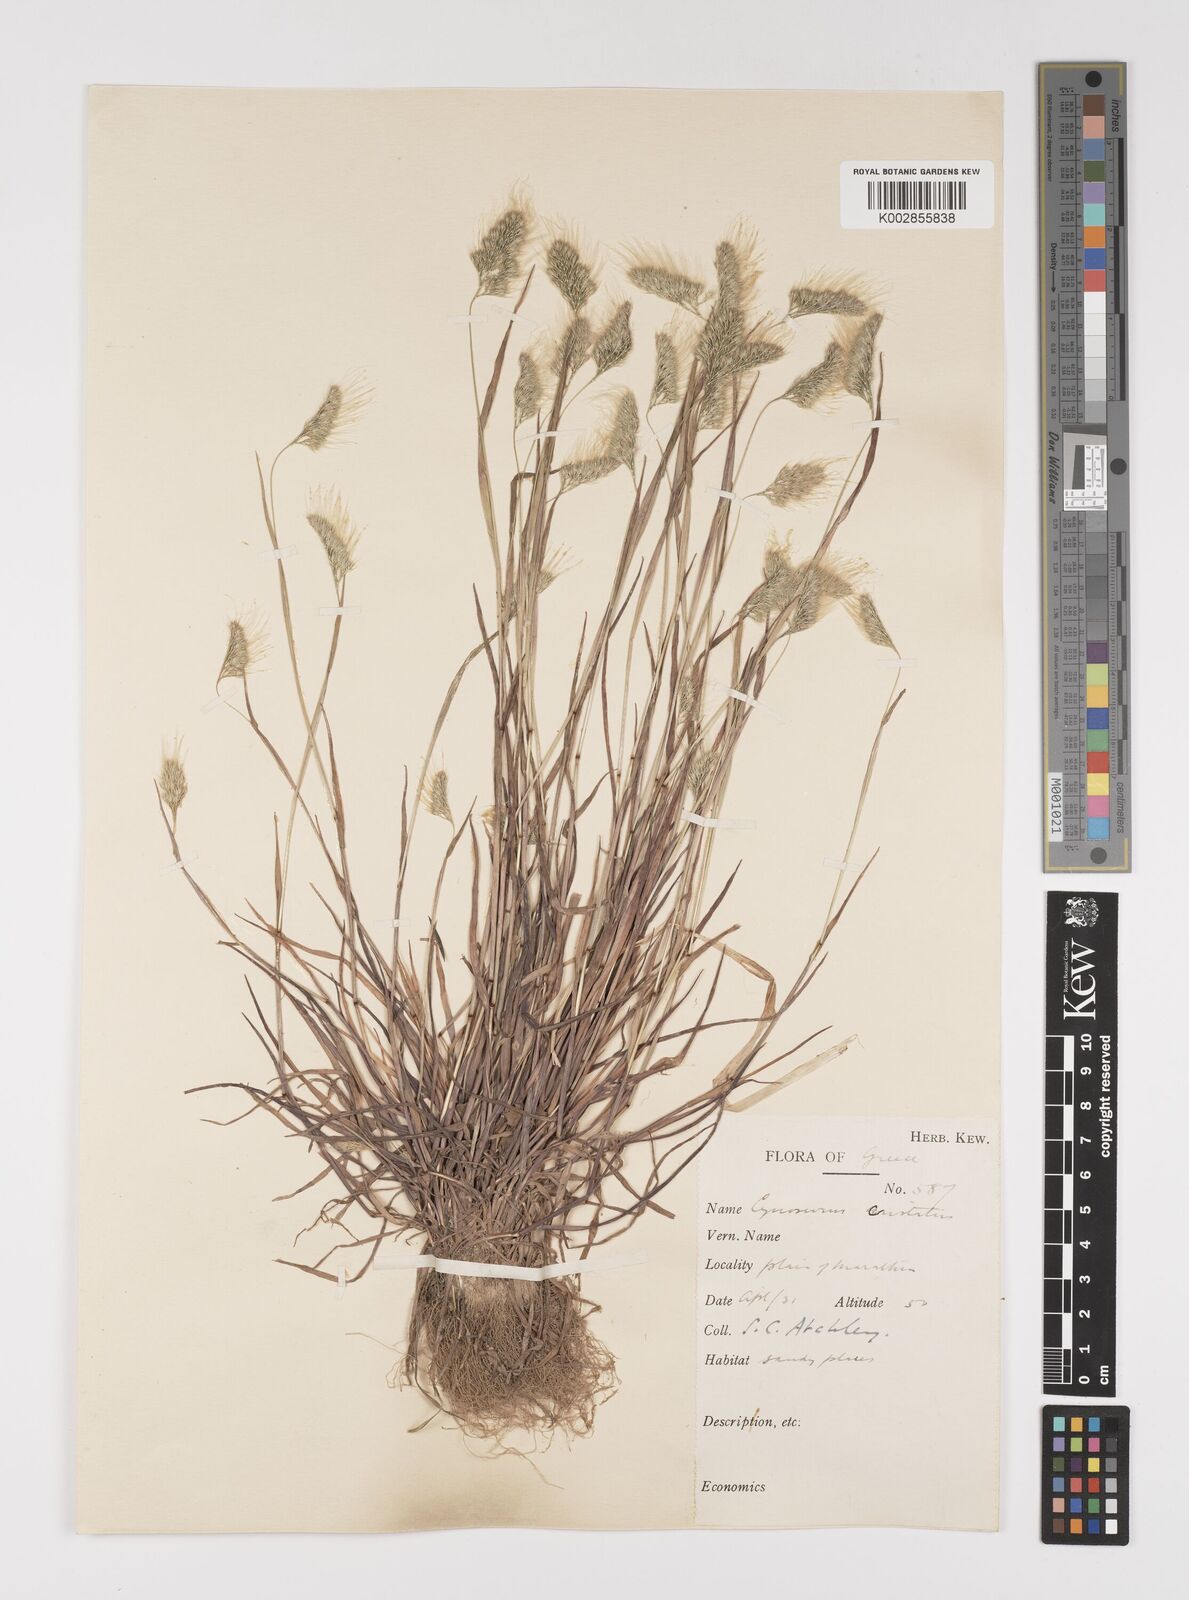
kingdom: Plantae
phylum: Tracheophyta
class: Liliopsida
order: Poales
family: Poaceae
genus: Cynosurus
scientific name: Cynosurus elegans
